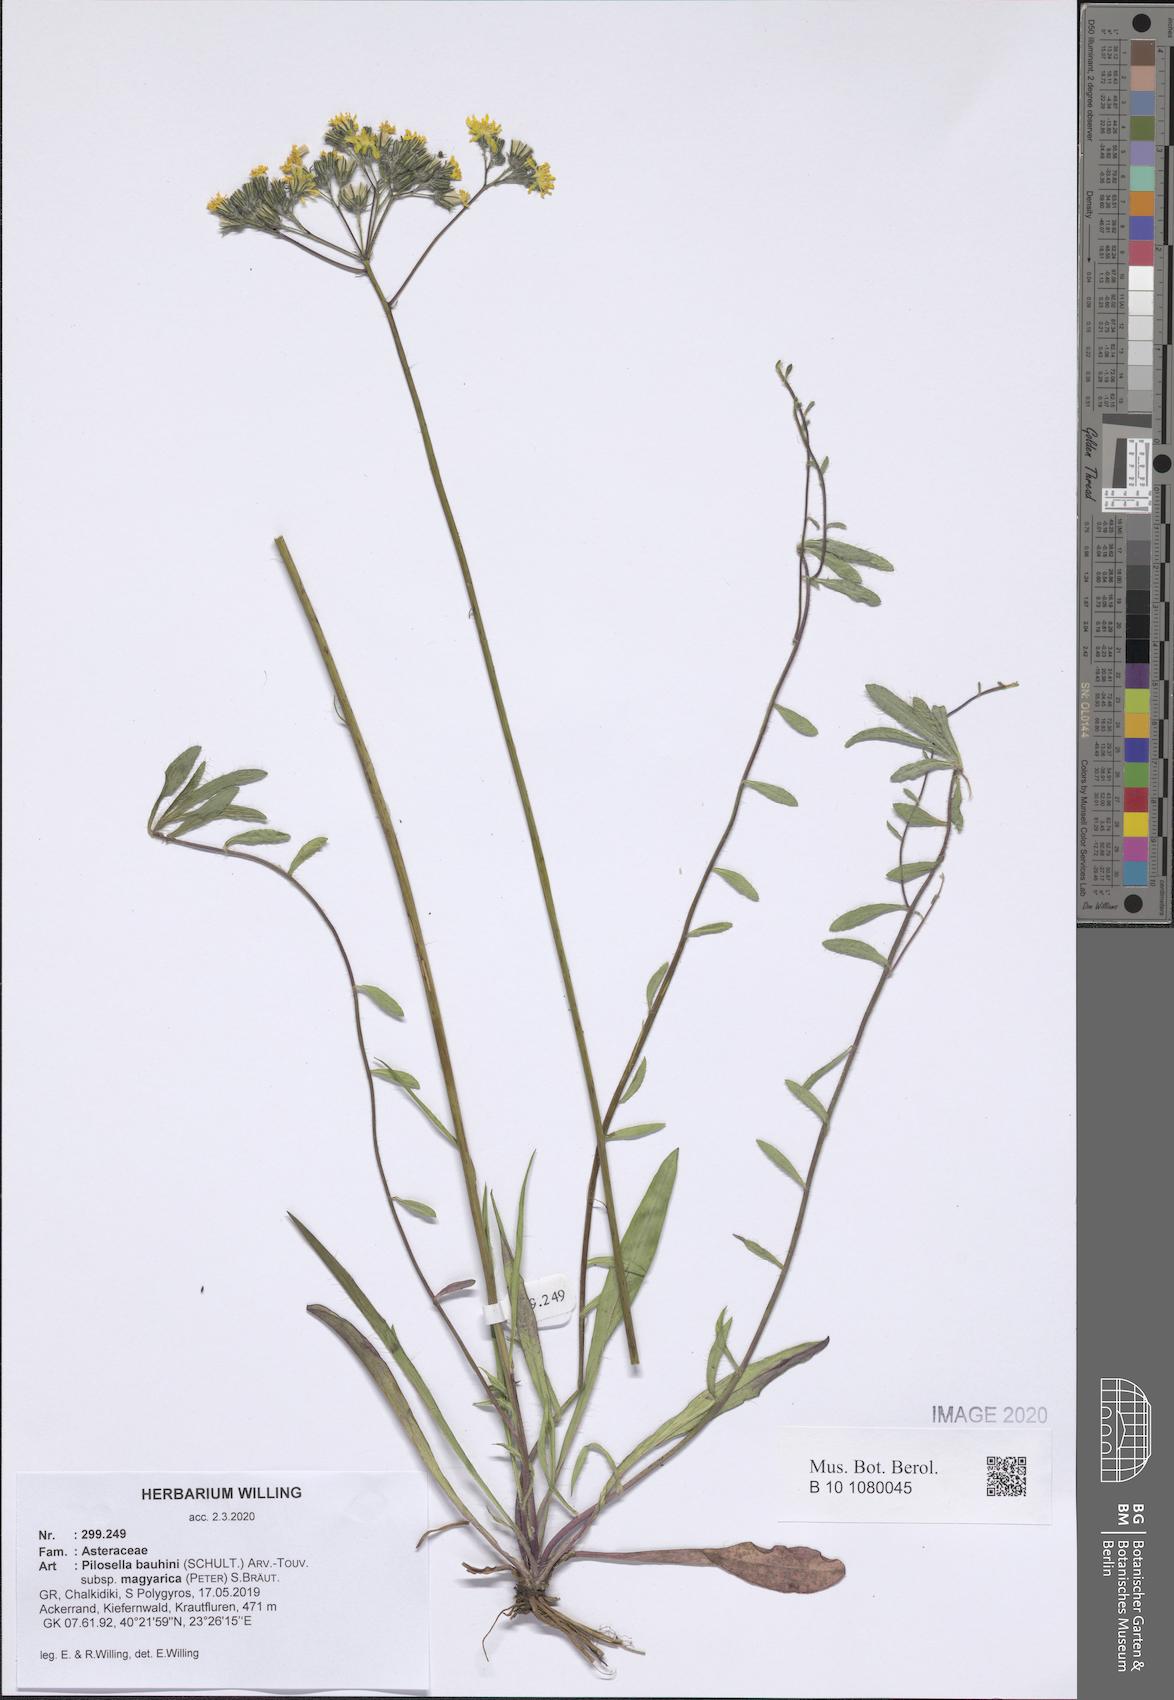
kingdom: Plantae
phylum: Tracheophyta
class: Magnoliopsida
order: Asterales
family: Asteraceae
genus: Pilosella
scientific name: Pilosella bauhini
